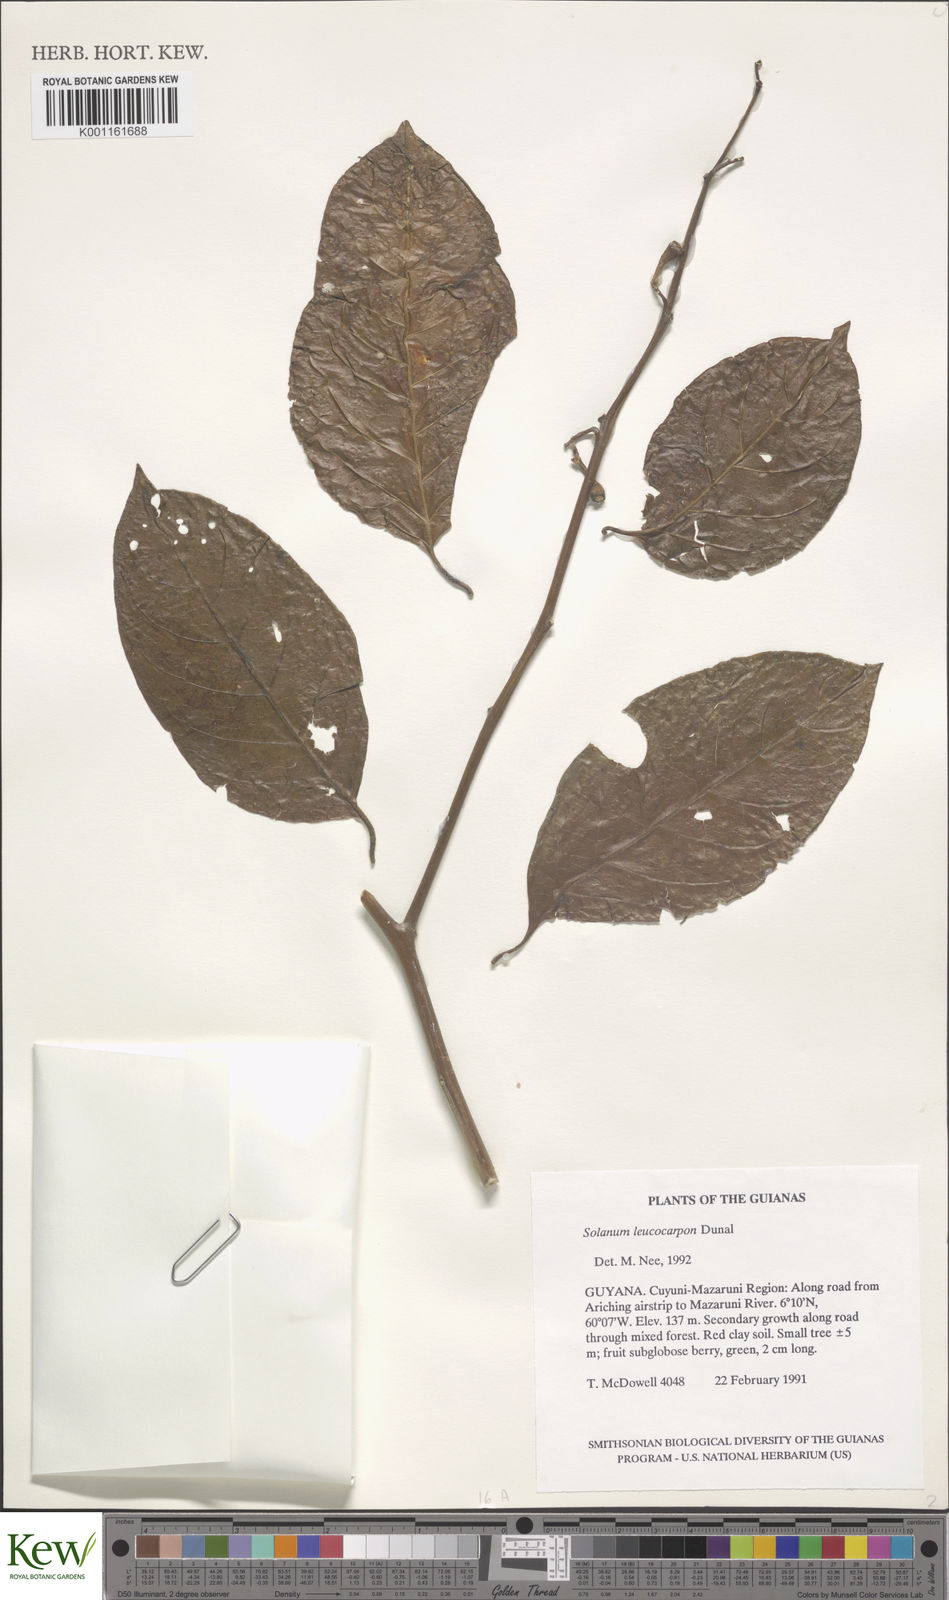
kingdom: Plantae
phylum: Tracheophyta
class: Magnoliopsida
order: Solanales
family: Solanaceae
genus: Solanum
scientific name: Solanum leucocarpon
